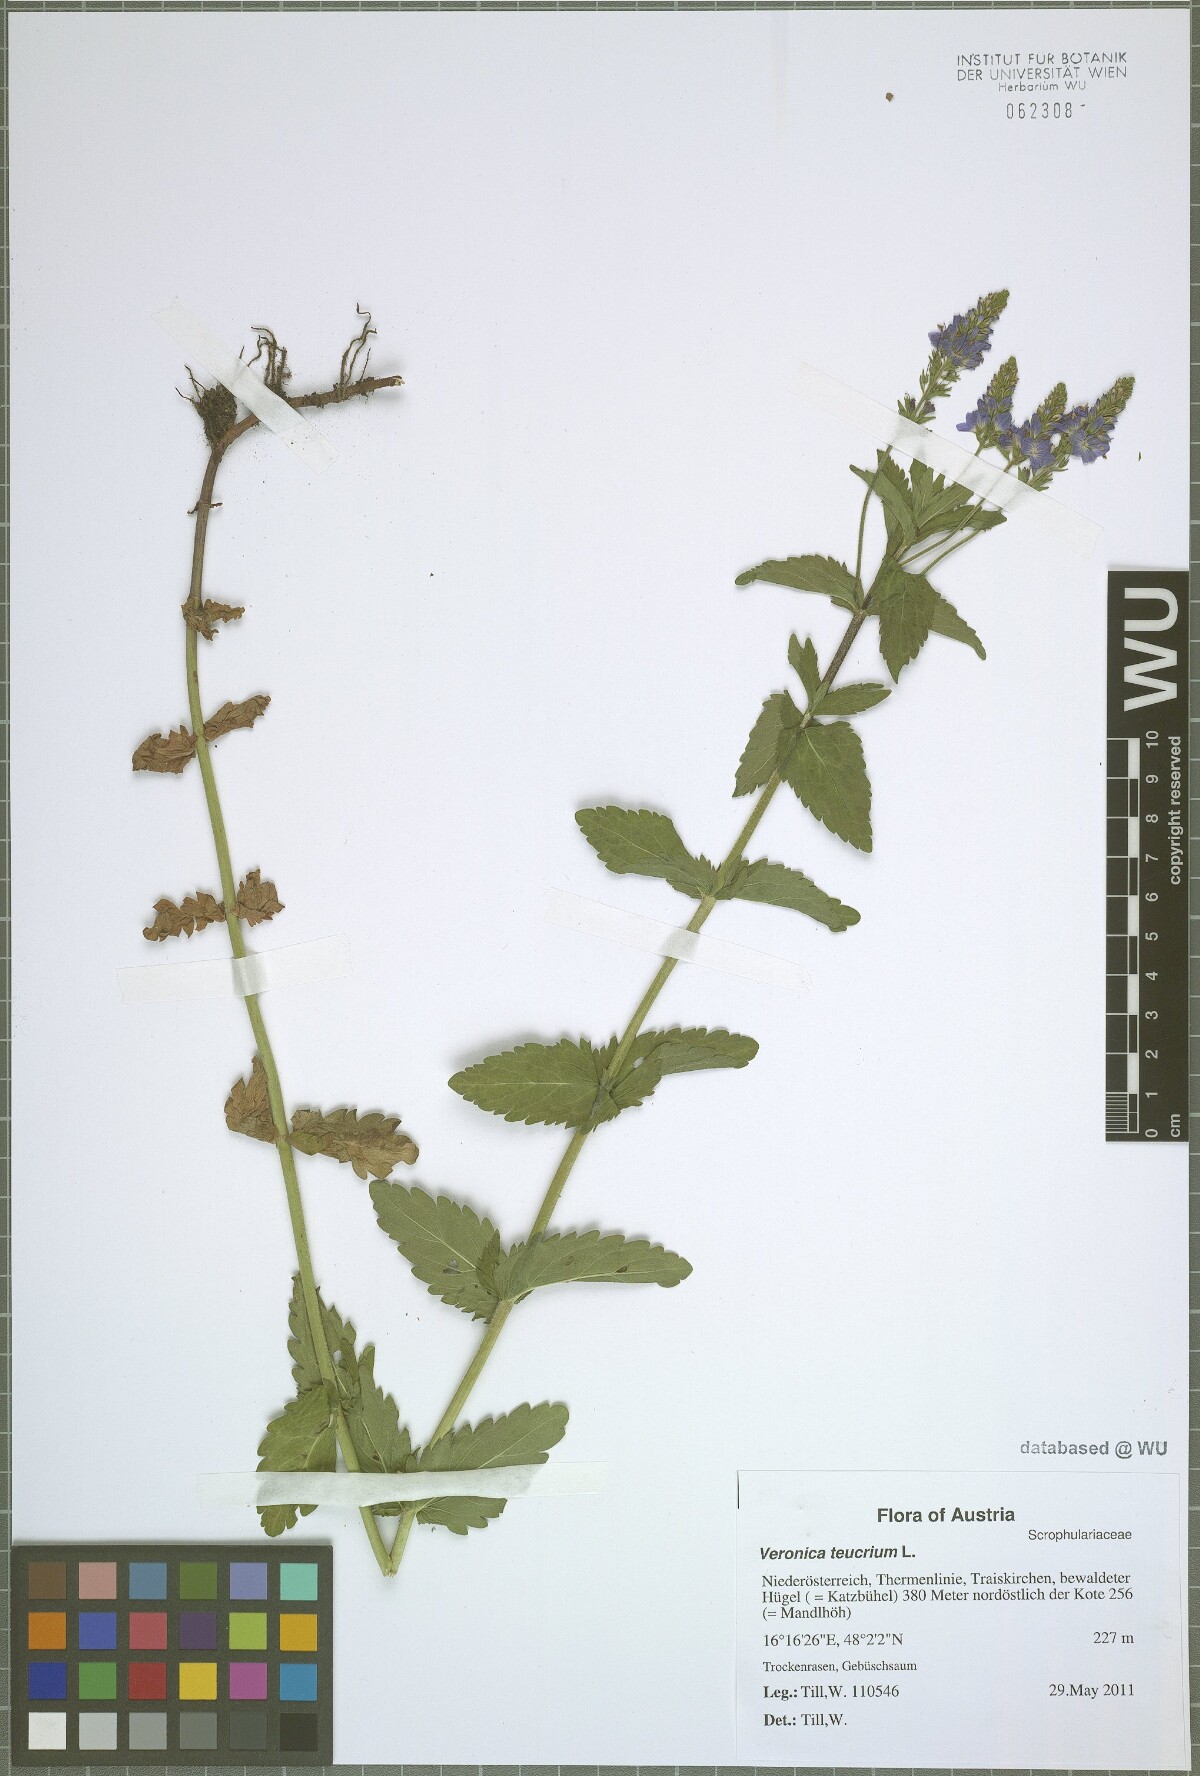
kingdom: Plantae
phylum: Tracheophyta
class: Magnoliopsida
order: Lamiales
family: Plantaginaceae
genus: Veronica
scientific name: Veronica teucrium
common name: Large speedwell
